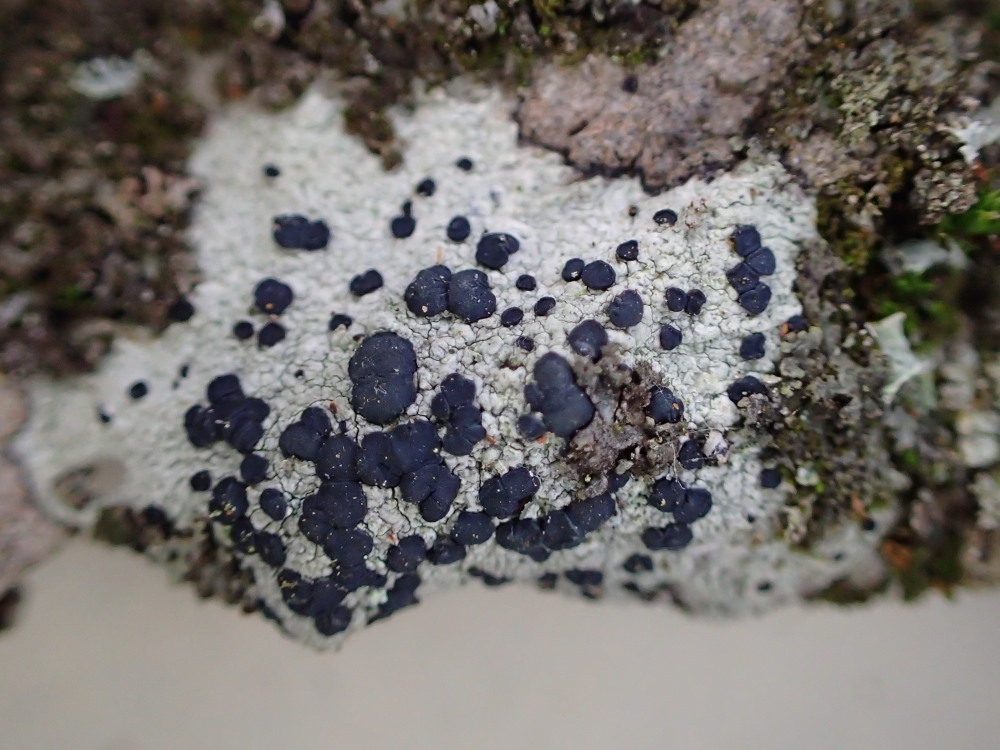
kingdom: Fungi
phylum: Ascomycota
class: Lecanoromycetes
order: Lecanorales
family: Lecanoraceae
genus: Lecidella
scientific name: Lecidella elaeochroma
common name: grågrøn skivelav
